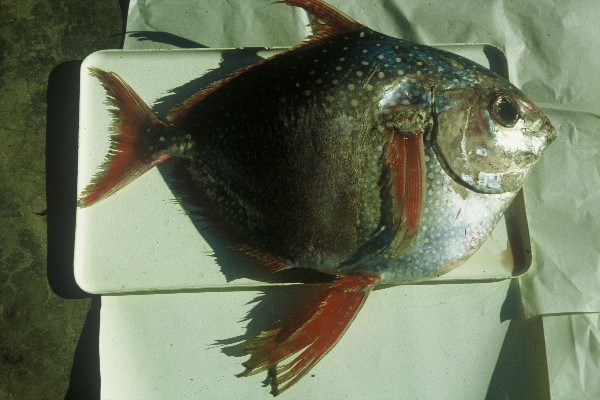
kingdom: Animalia
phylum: Chordata
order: Lampriformes
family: Lampridae
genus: Lampris
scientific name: Lampris guttatus
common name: Opah
